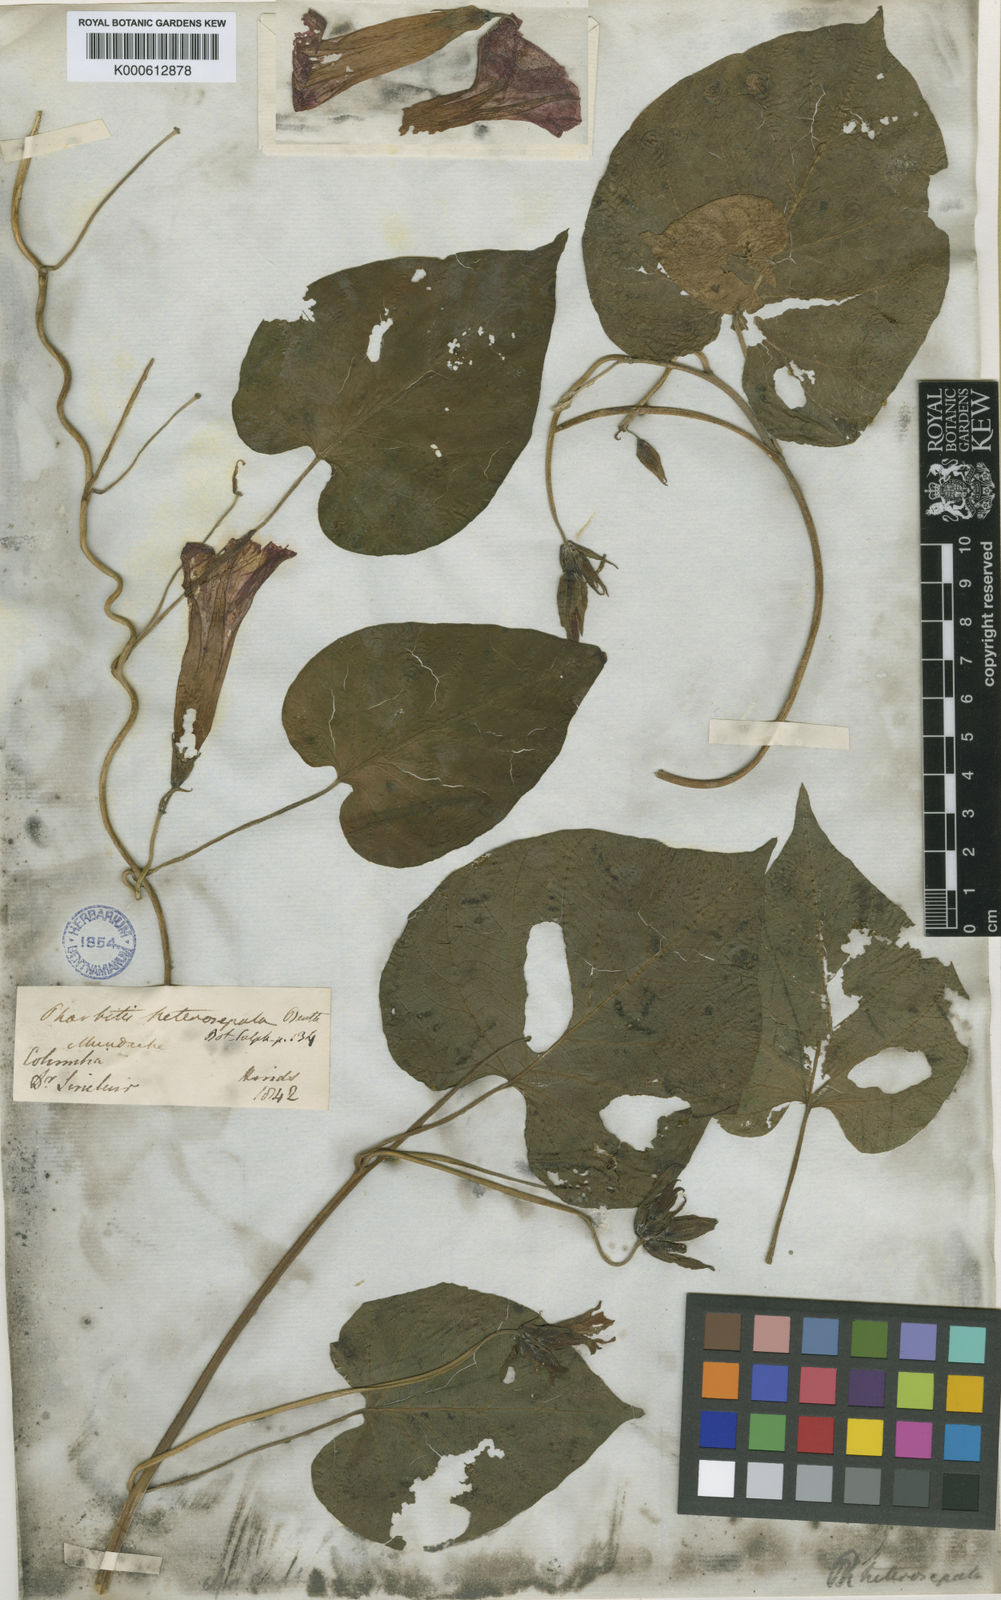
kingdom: Plantae
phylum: Tracheophyta
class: Magnoliopsida
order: Solanales
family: Convolvulaceae
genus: Ipomoea
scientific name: Ipomoea heterosepala
